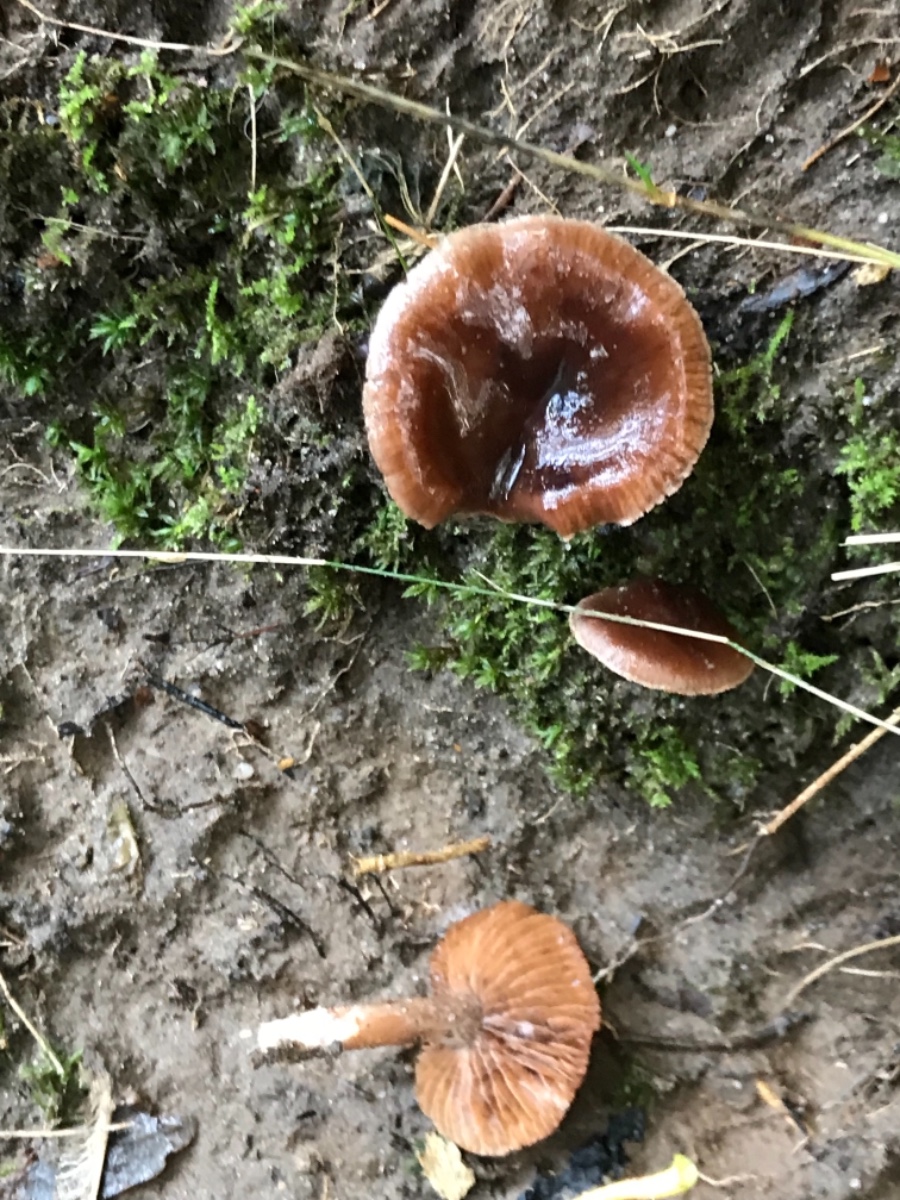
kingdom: Fungi
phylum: Basidiomycota
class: Agaricomycetes
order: Agaricales
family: Cortinariaceae
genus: Cortinarius
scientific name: Cortinarius
